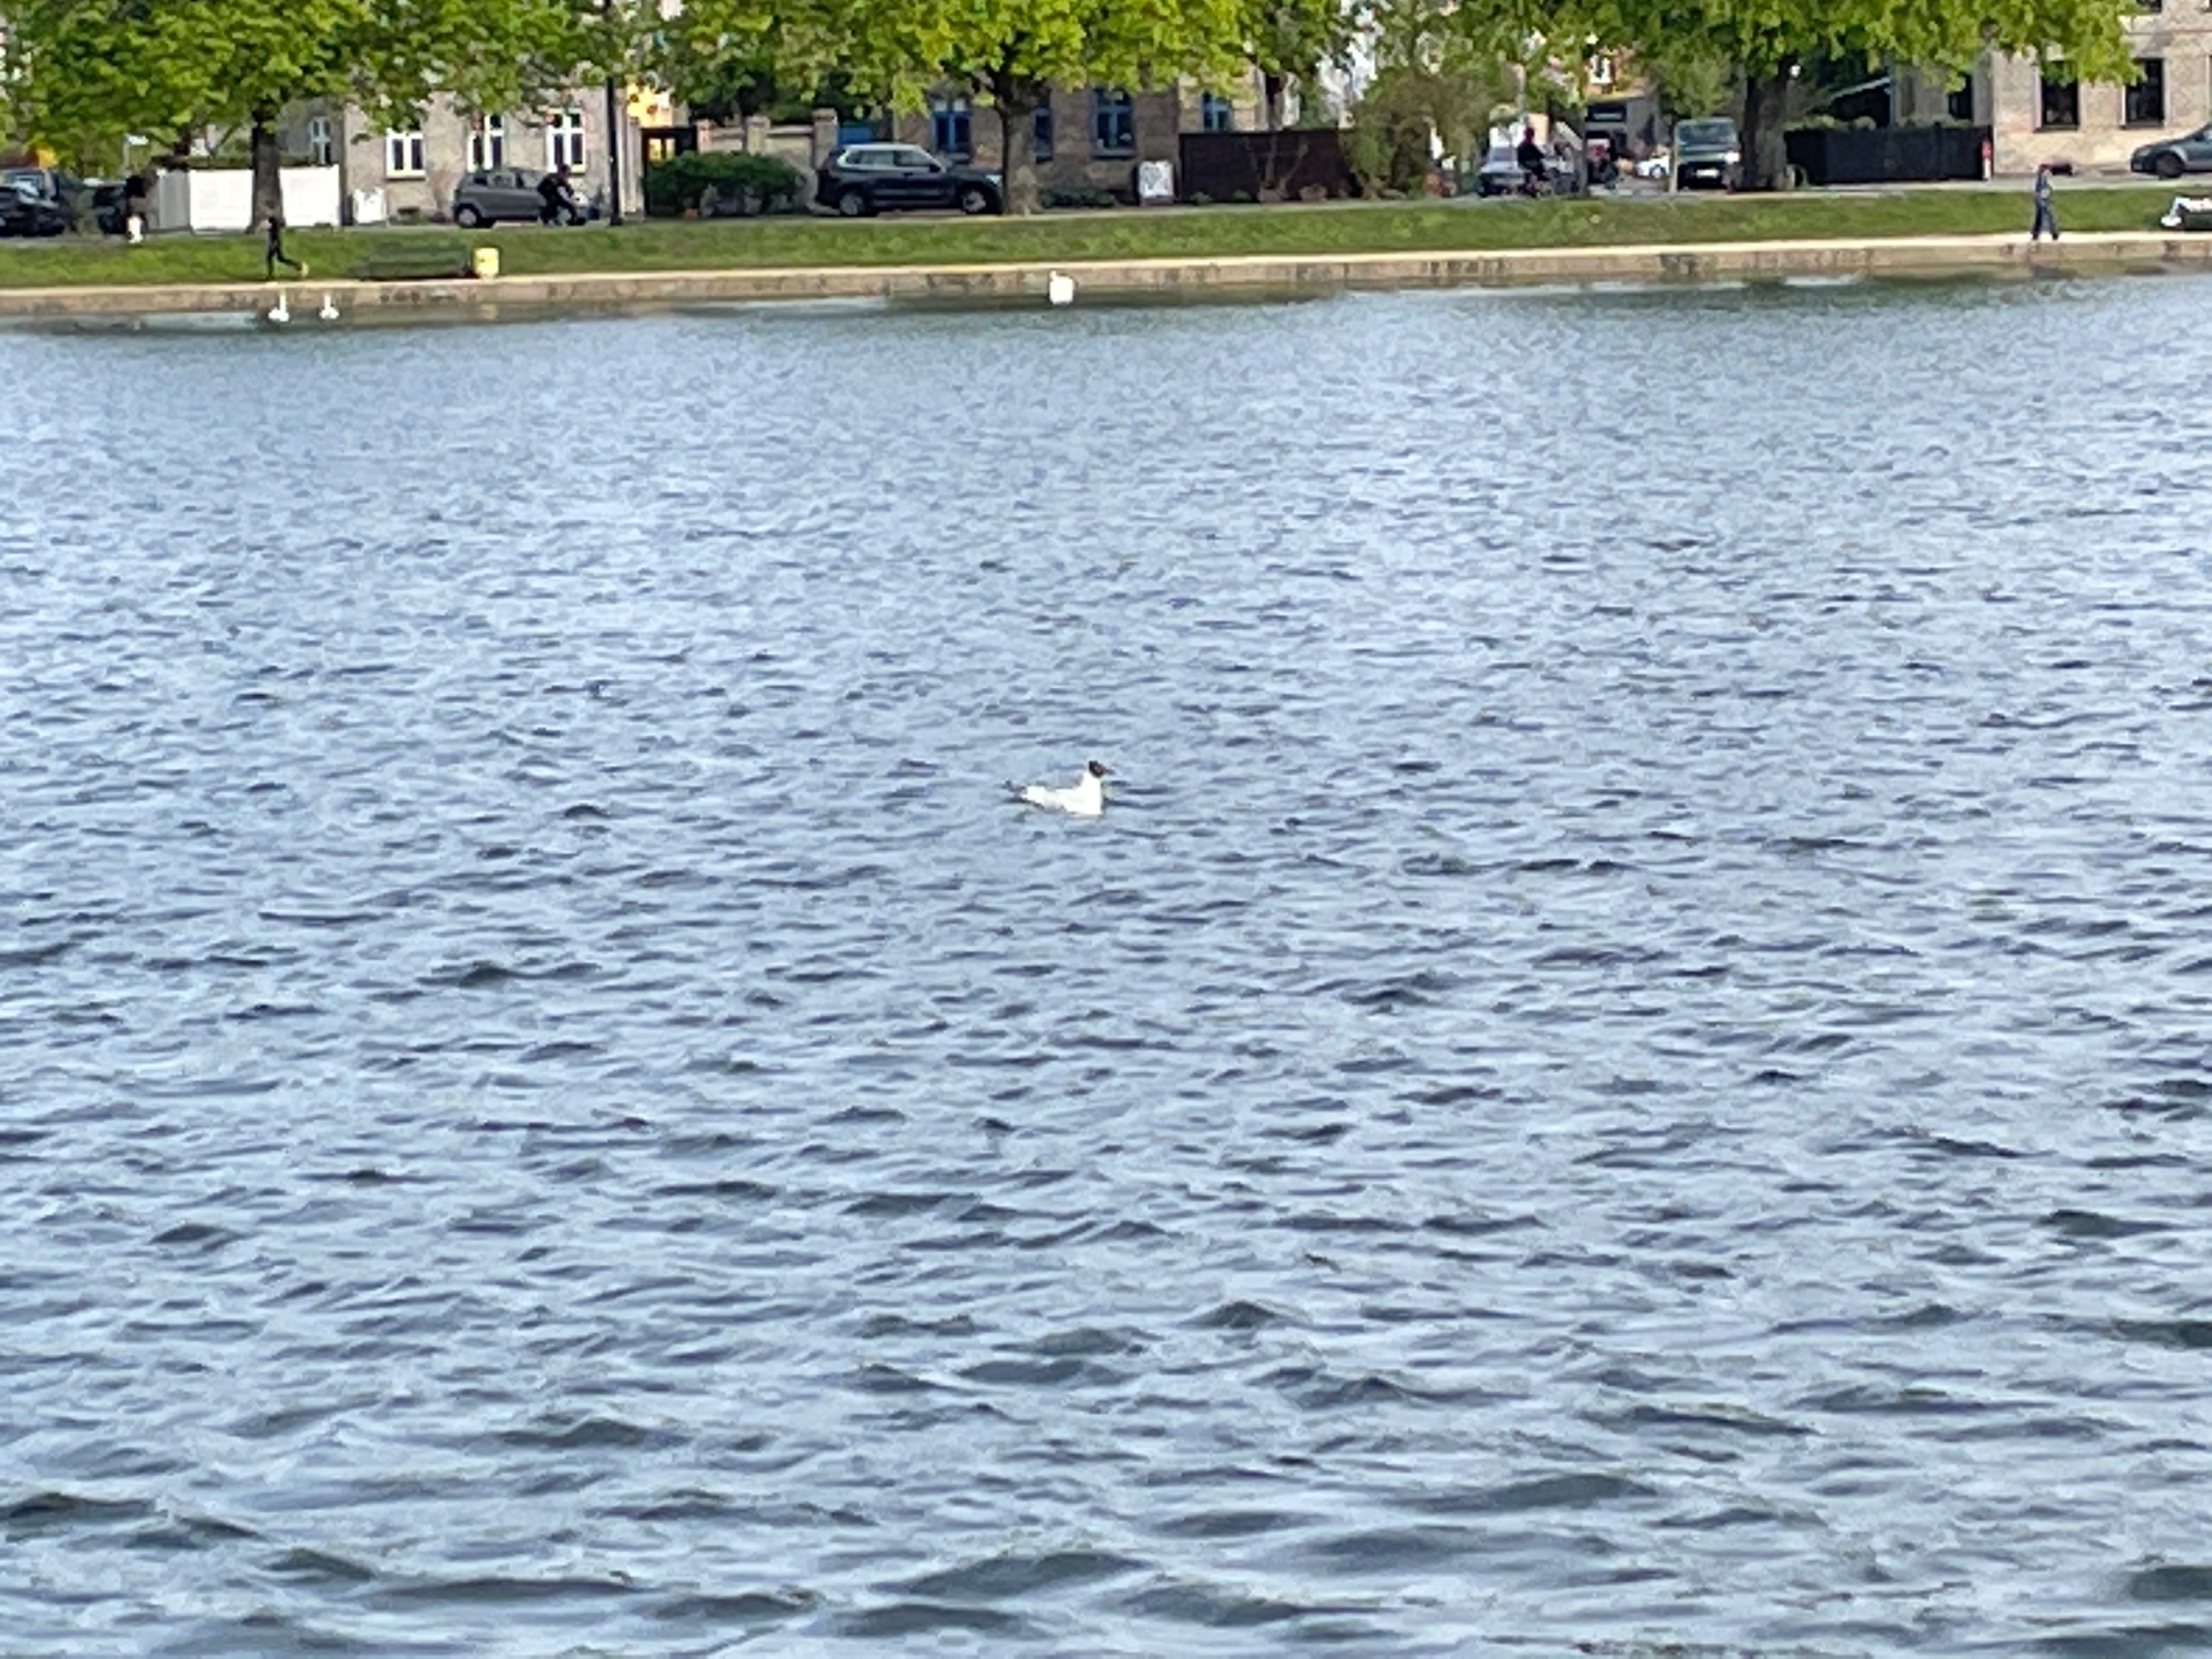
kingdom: Animalia
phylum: Chordata
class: Aves
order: Charadriiformes
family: Laridae
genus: Chroicocephalus
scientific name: Chroicocephalus ridibundus
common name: Hættemåge
